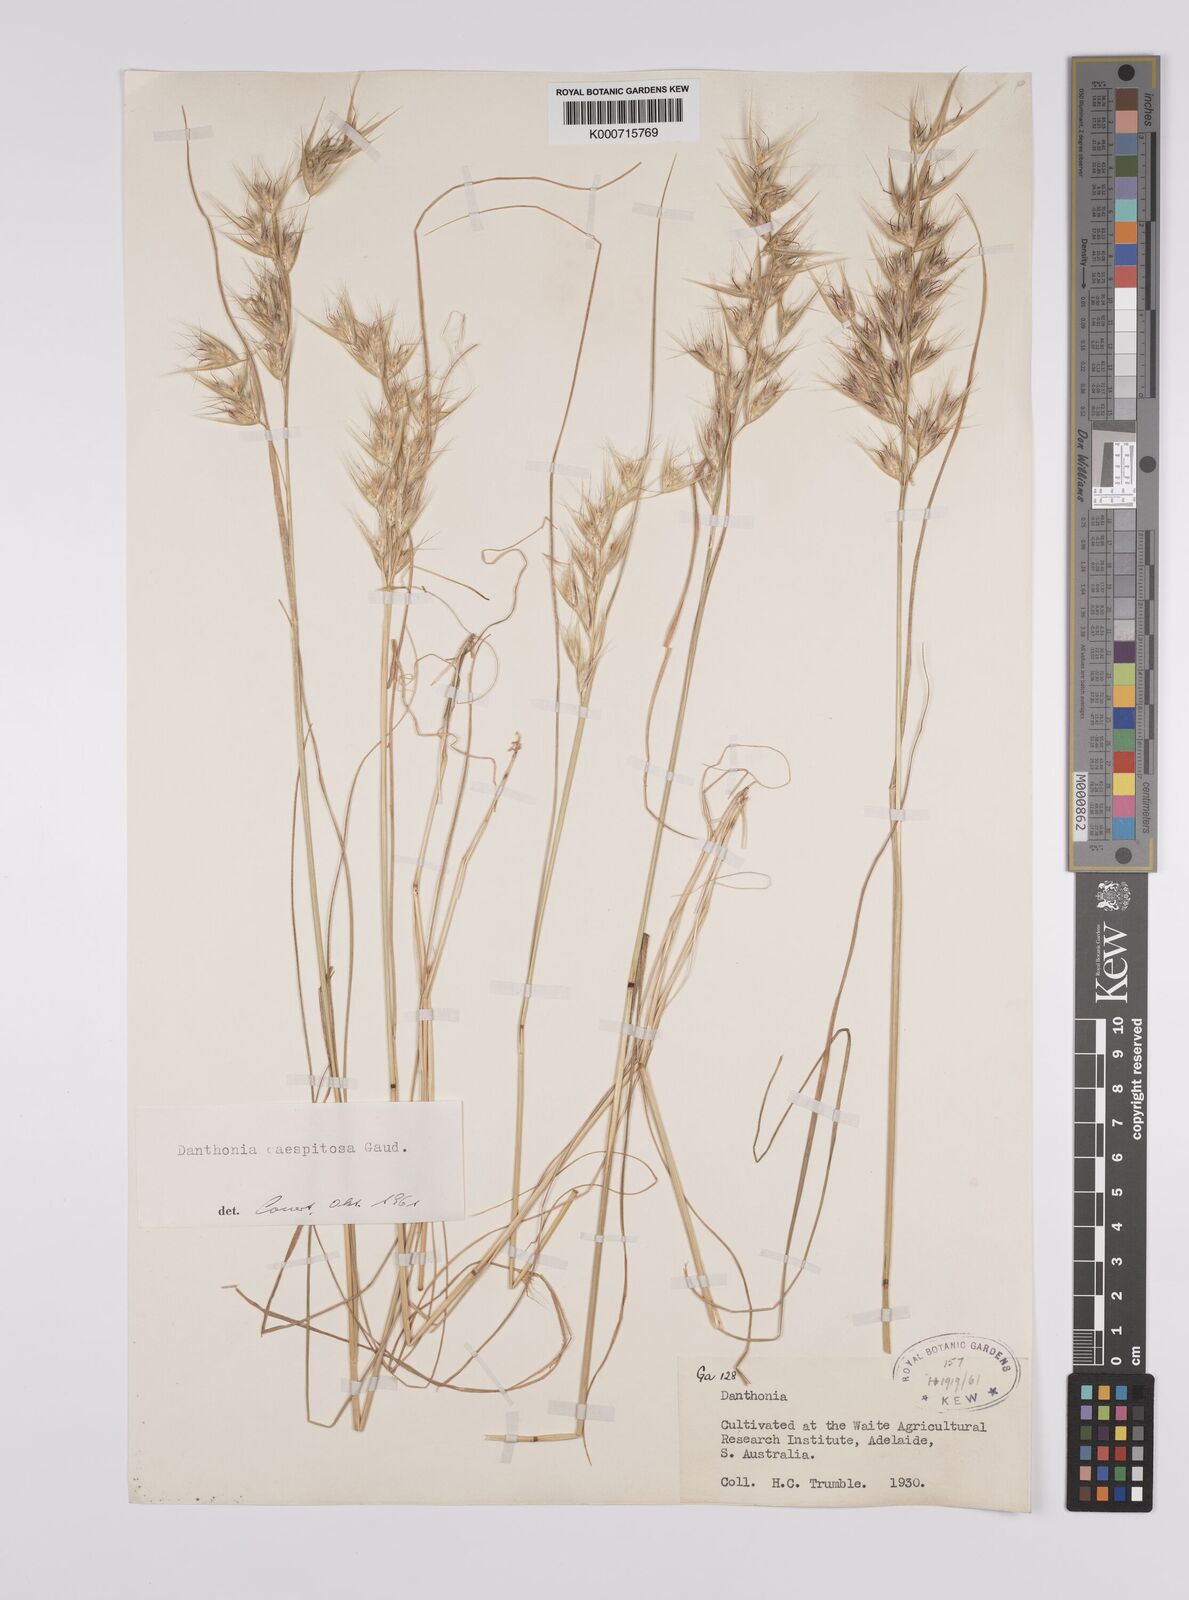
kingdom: Plantae
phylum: Tracheophyta
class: Liliopsida
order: Poales
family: Poaceae
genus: Rytidosperma
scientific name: Rytidosperma caespitosum
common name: Tufted wallaby grass
